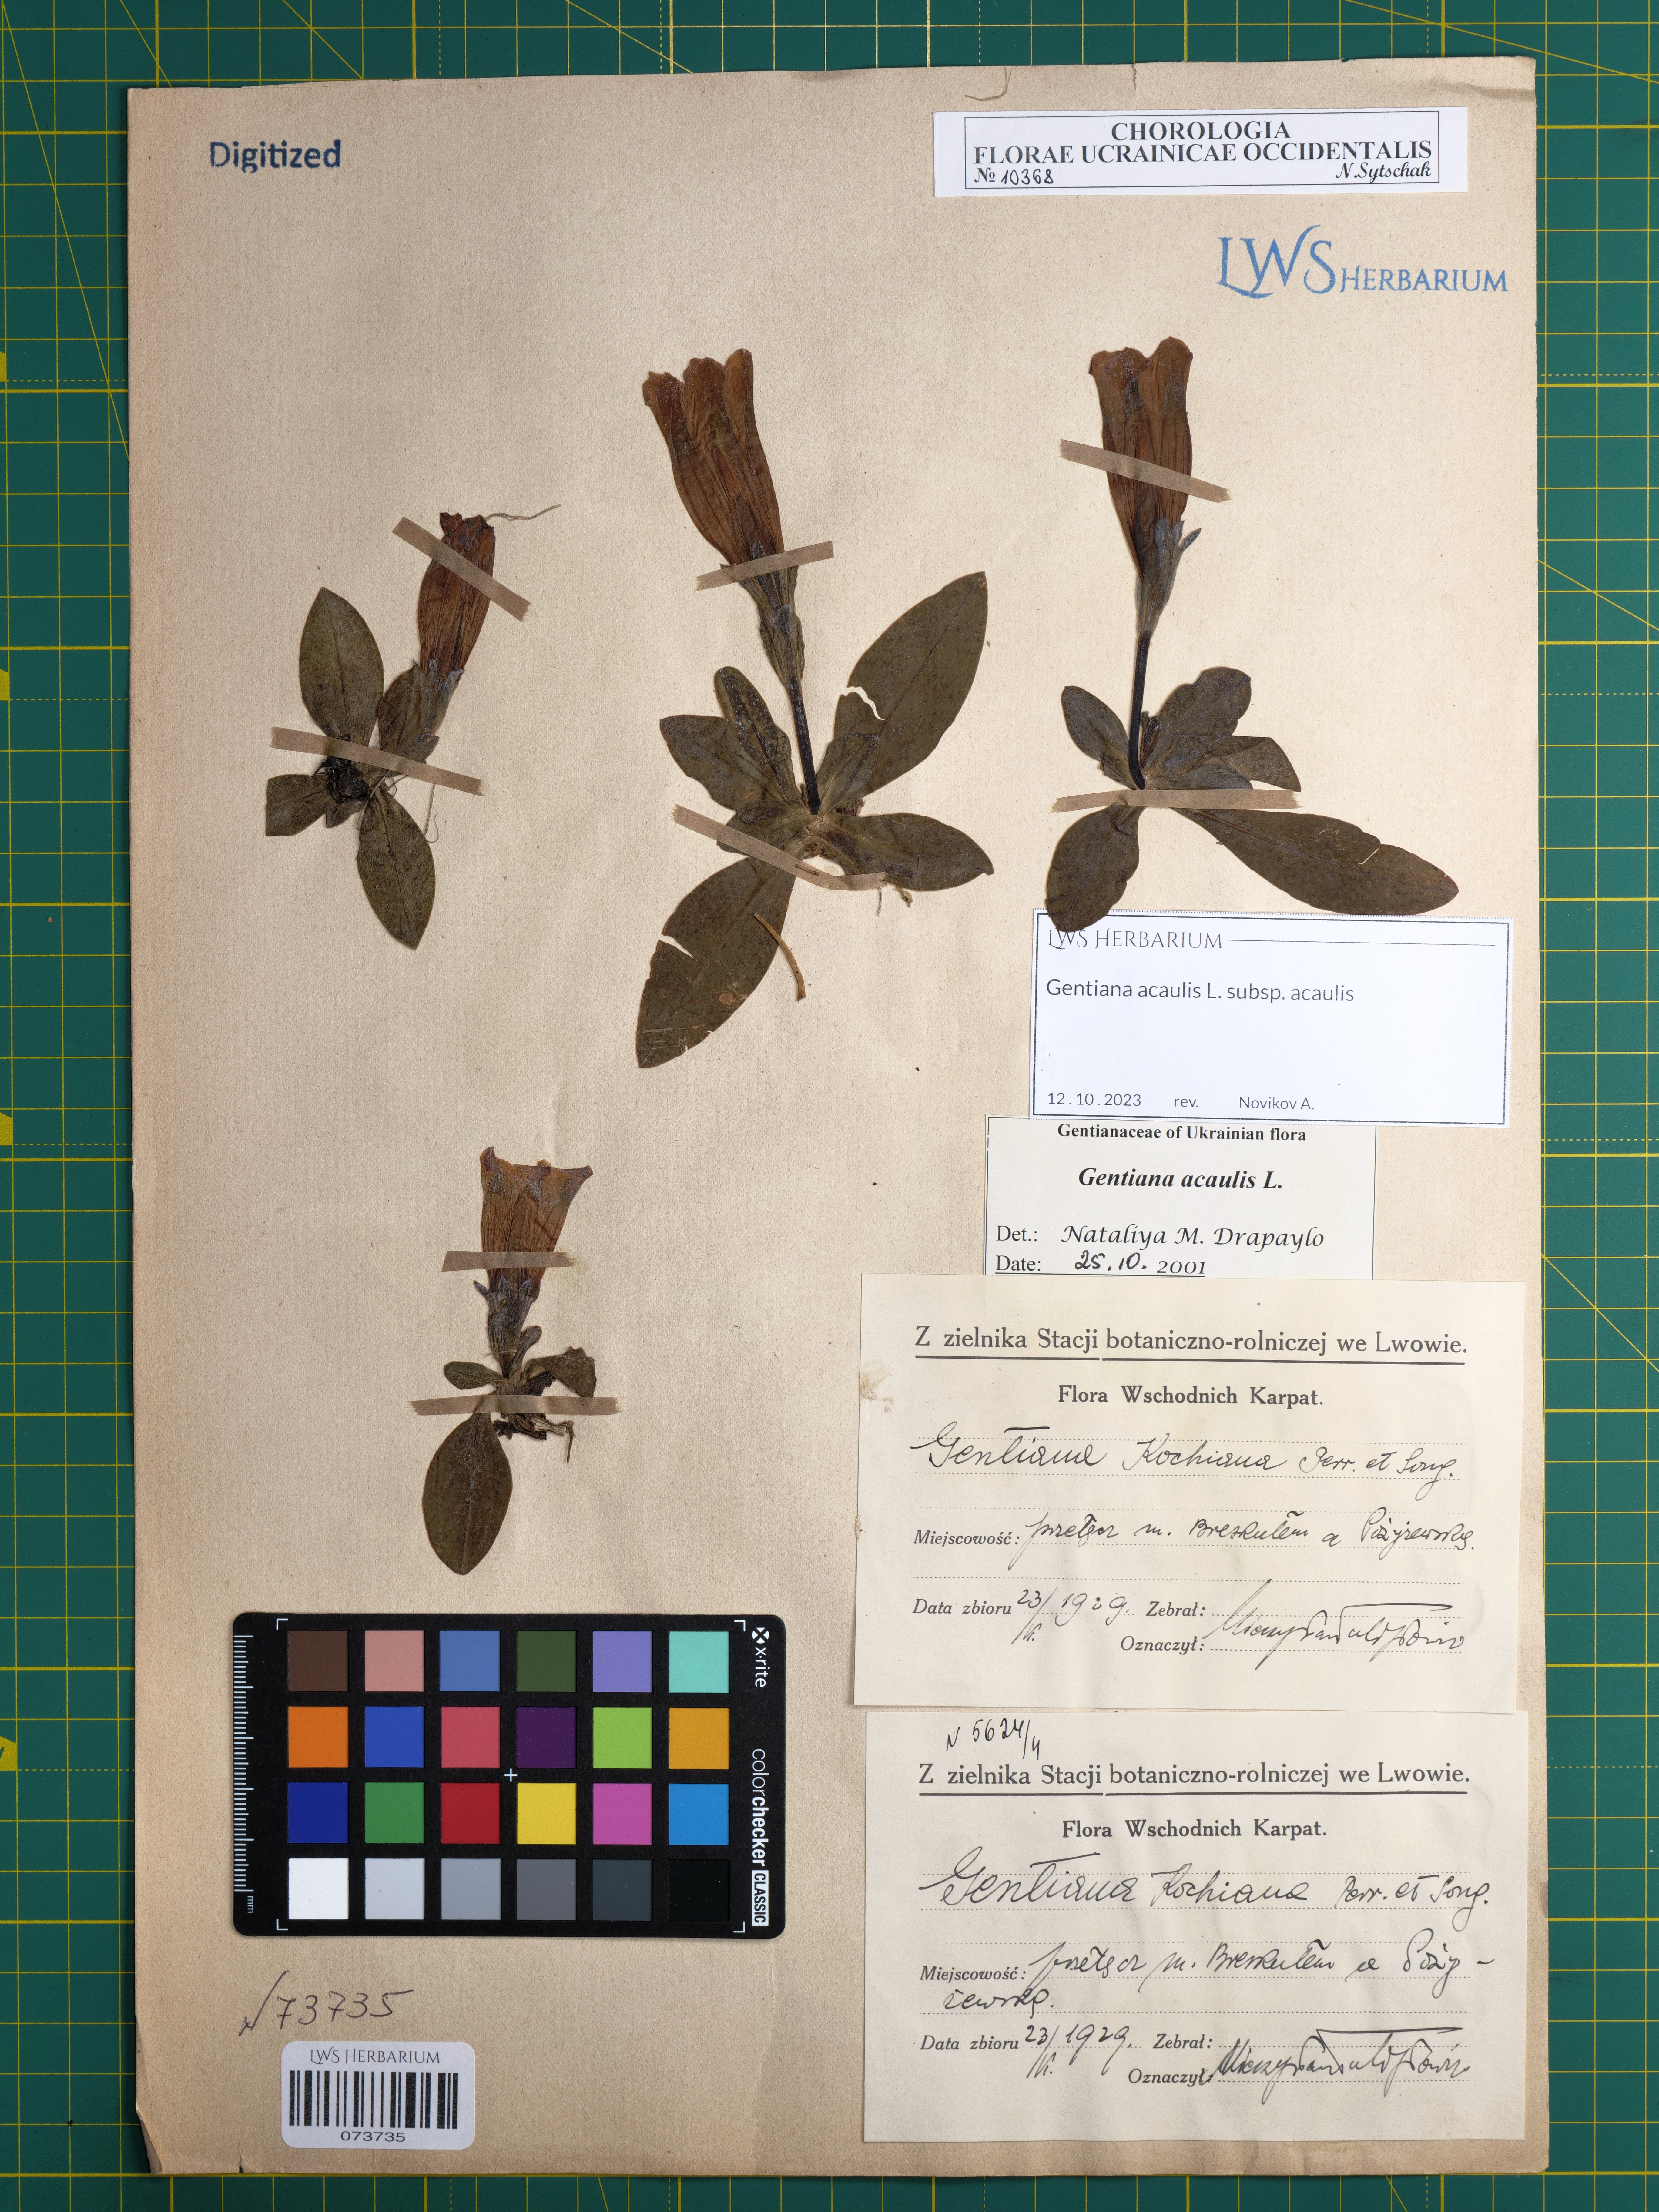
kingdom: Plantae
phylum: Tracheophyta
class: Magnoliopsida
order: Gentianales
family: Gentianaceae
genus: Gentiana
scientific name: Gentiana acaulis
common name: Trumpet gentian
